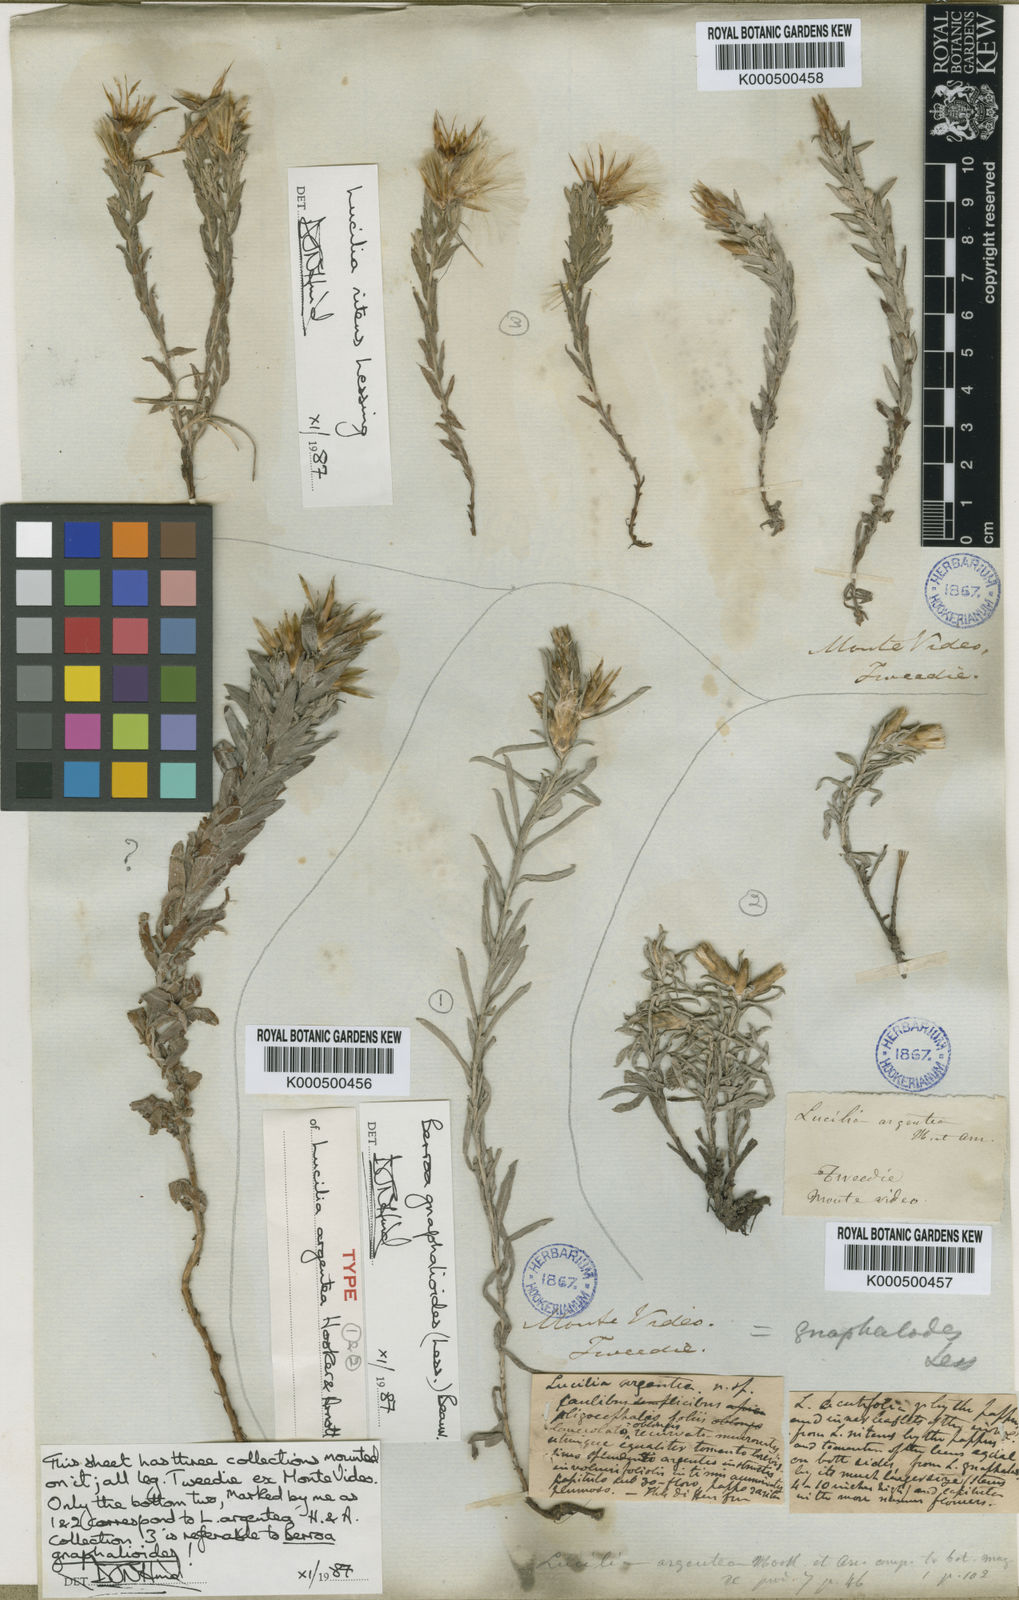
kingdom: Plantae
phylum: Tracheophyta
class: Magnoliopsida
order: Asterales
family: Asteraceae
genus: Berroa
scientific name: Berroa gnaphalioides
